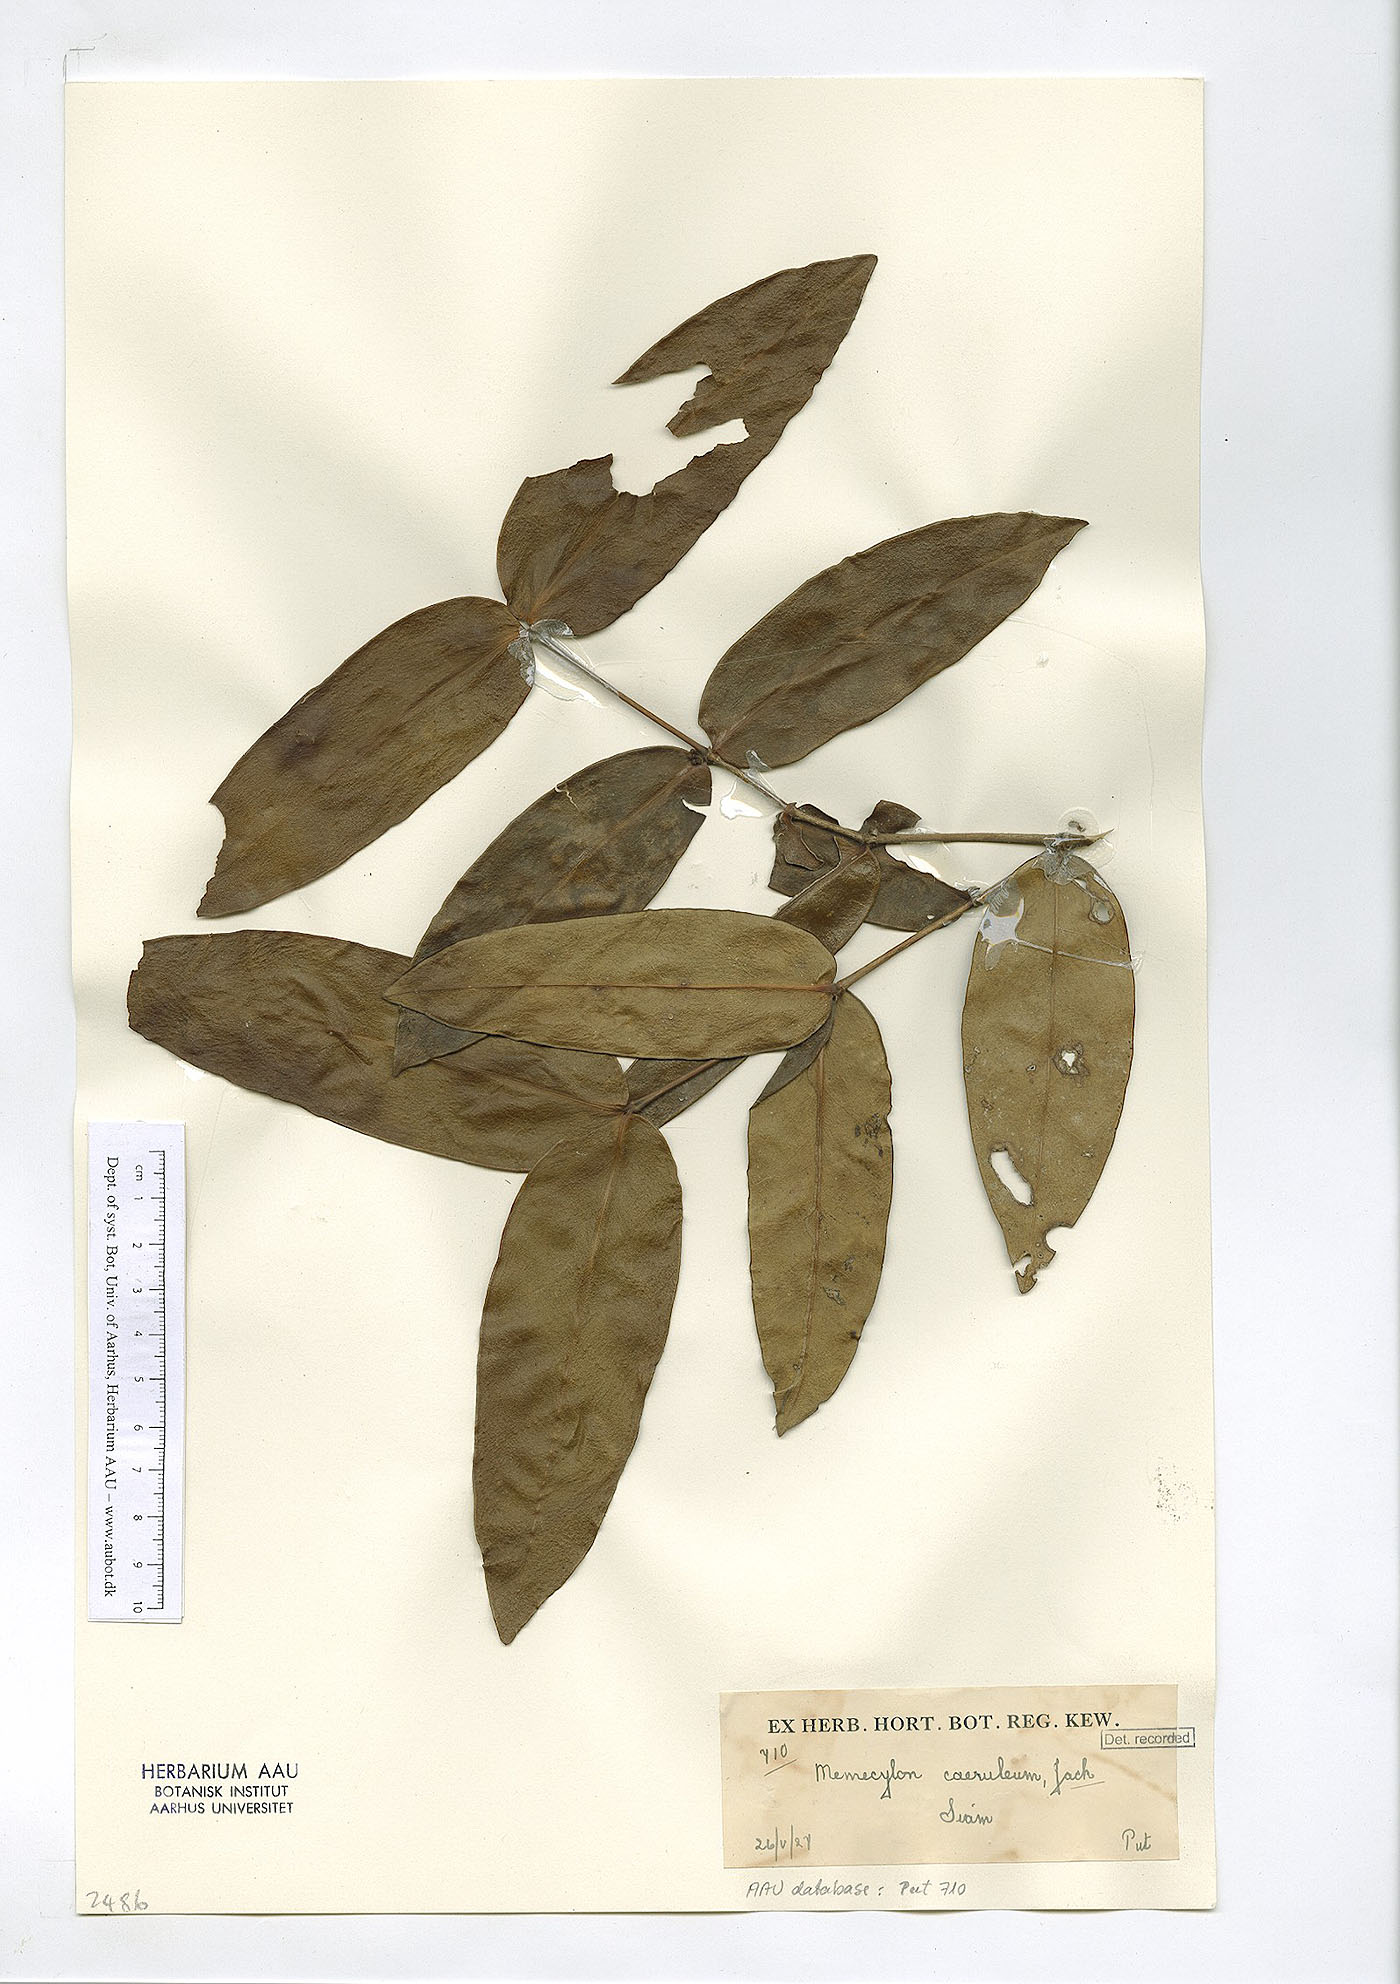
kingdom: Plantae
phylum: Tracheophyta
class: Magnoliopsida
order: Myrtales
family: Melastomataceae
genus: Memecylon
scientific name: Memecylon caeruleum
